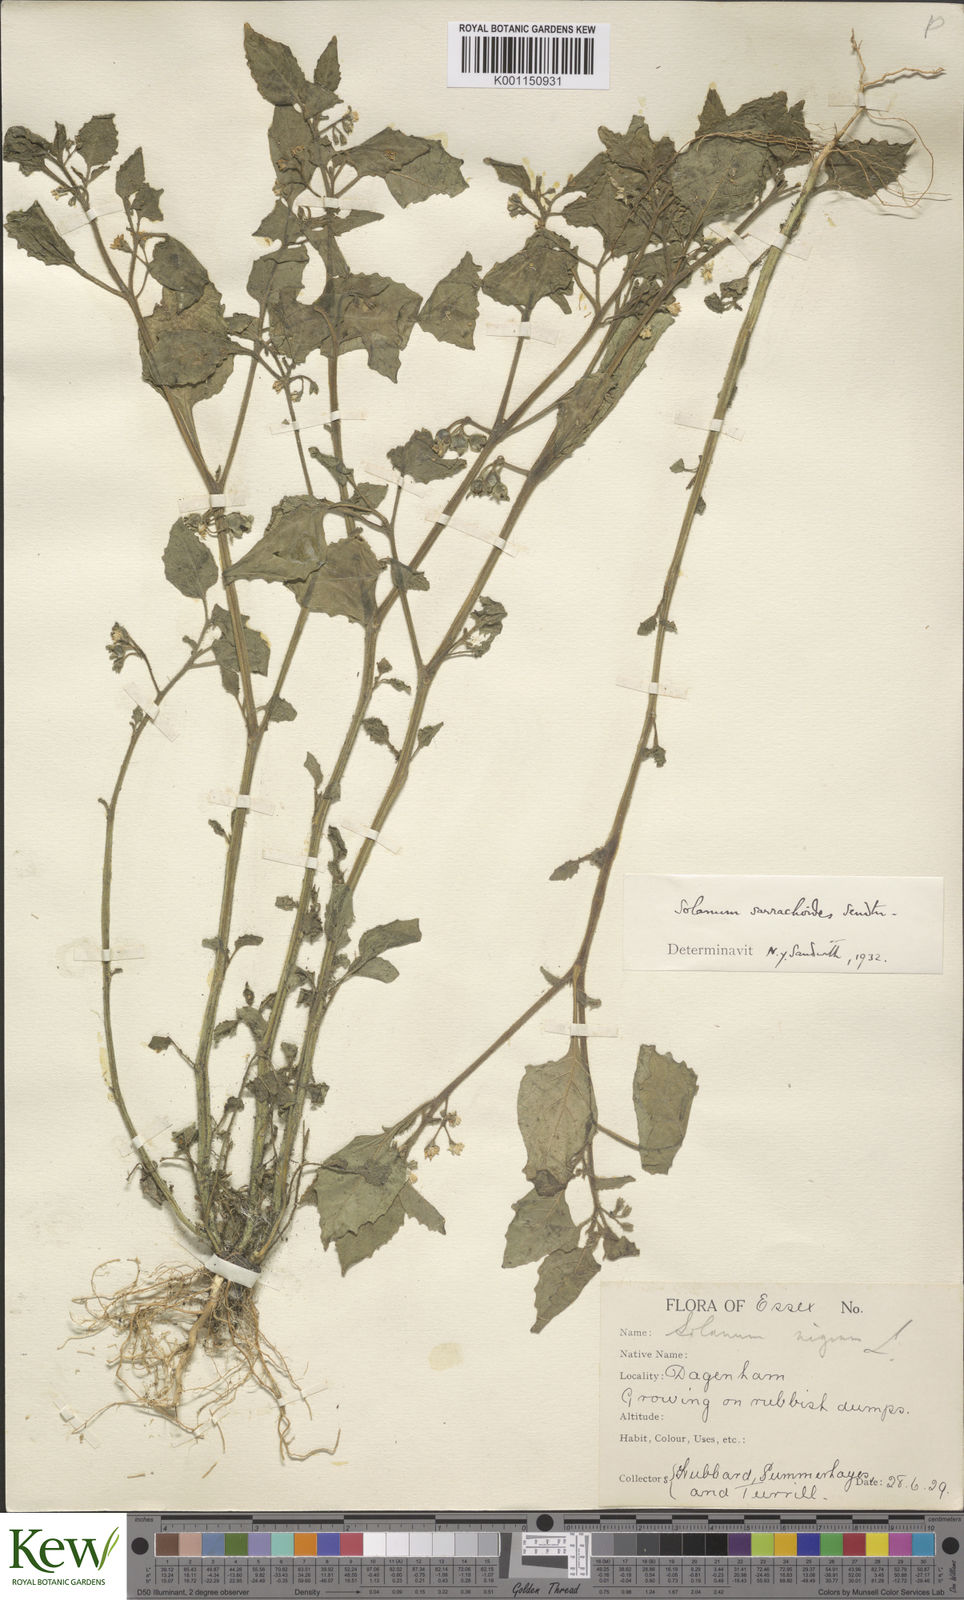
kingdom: Plantae
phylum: Tracheophyta
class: Magnoliopsida
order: Solanales
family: Solanaceae
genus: Solanum
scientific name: Solanum sarrachoides
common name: Leafy-fruited nightshade
